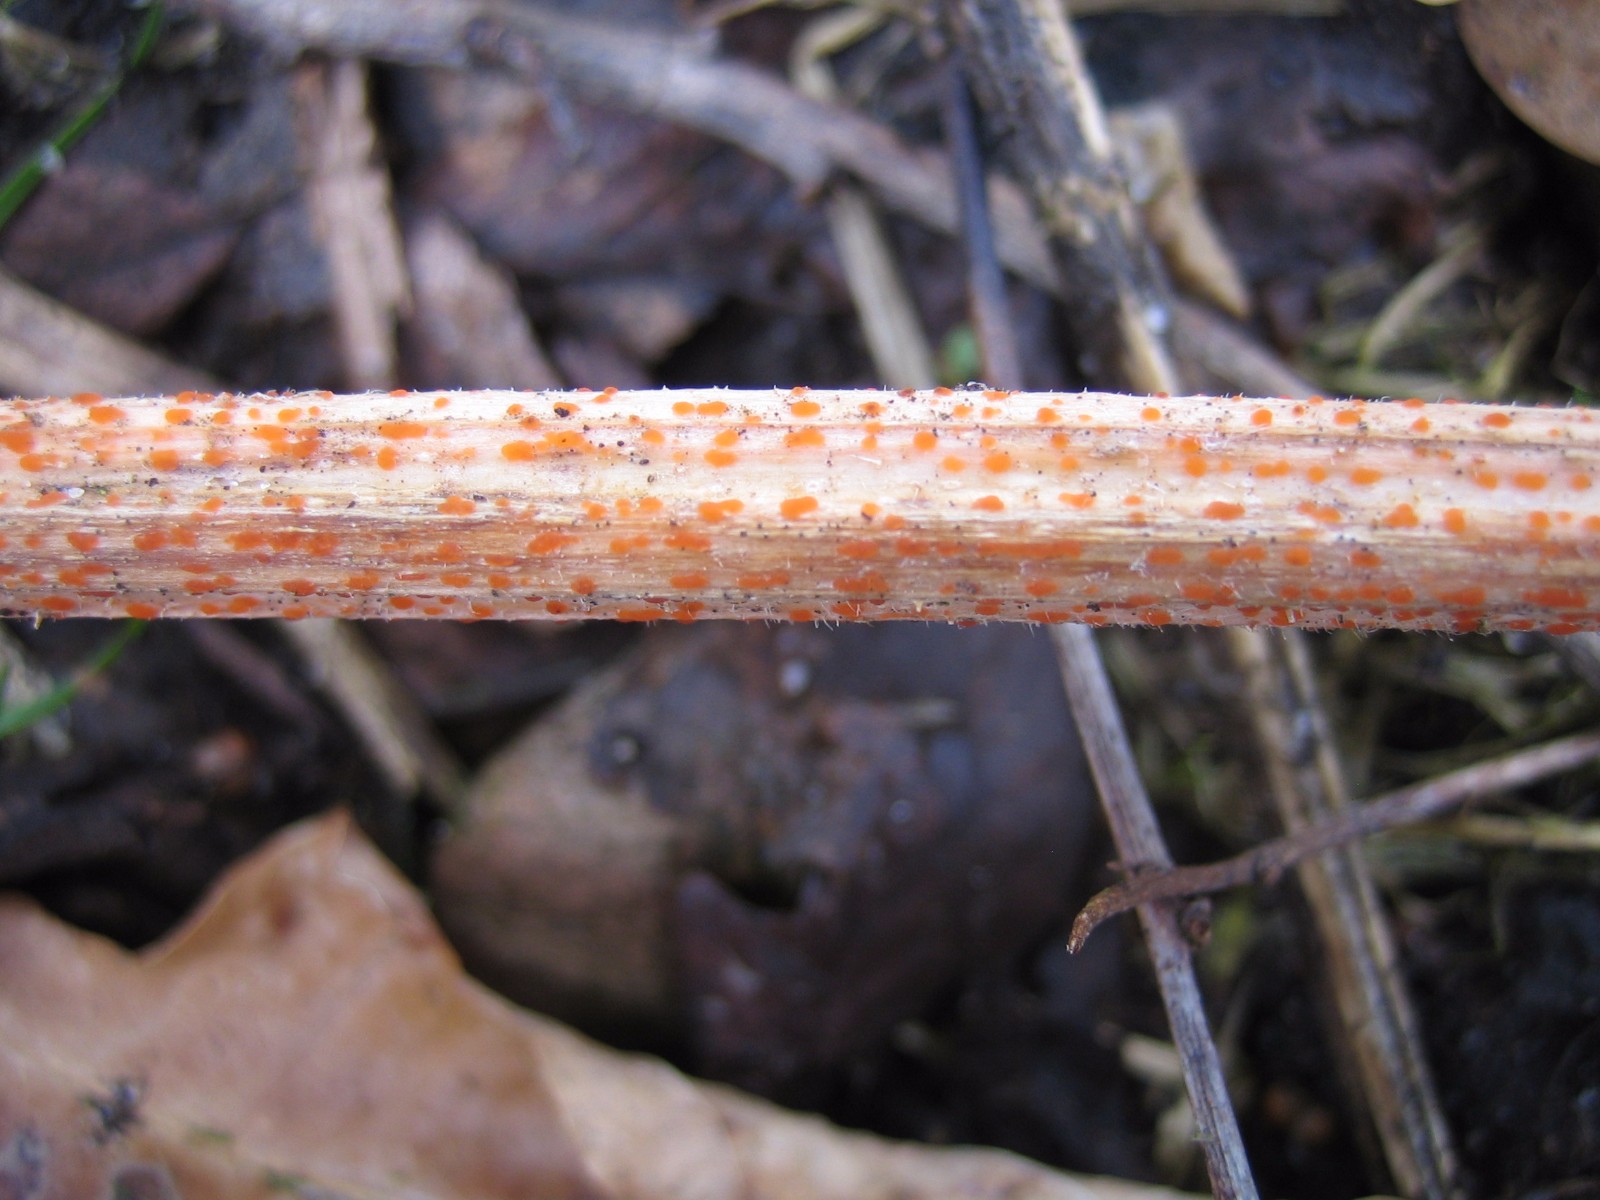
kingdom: Fungi
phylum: Ascomycota
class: Leotiomycetes
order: Helotiales
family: Calloriaceae
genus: Calloria
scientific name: Calloria urticae
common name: nælde-orangeskive
